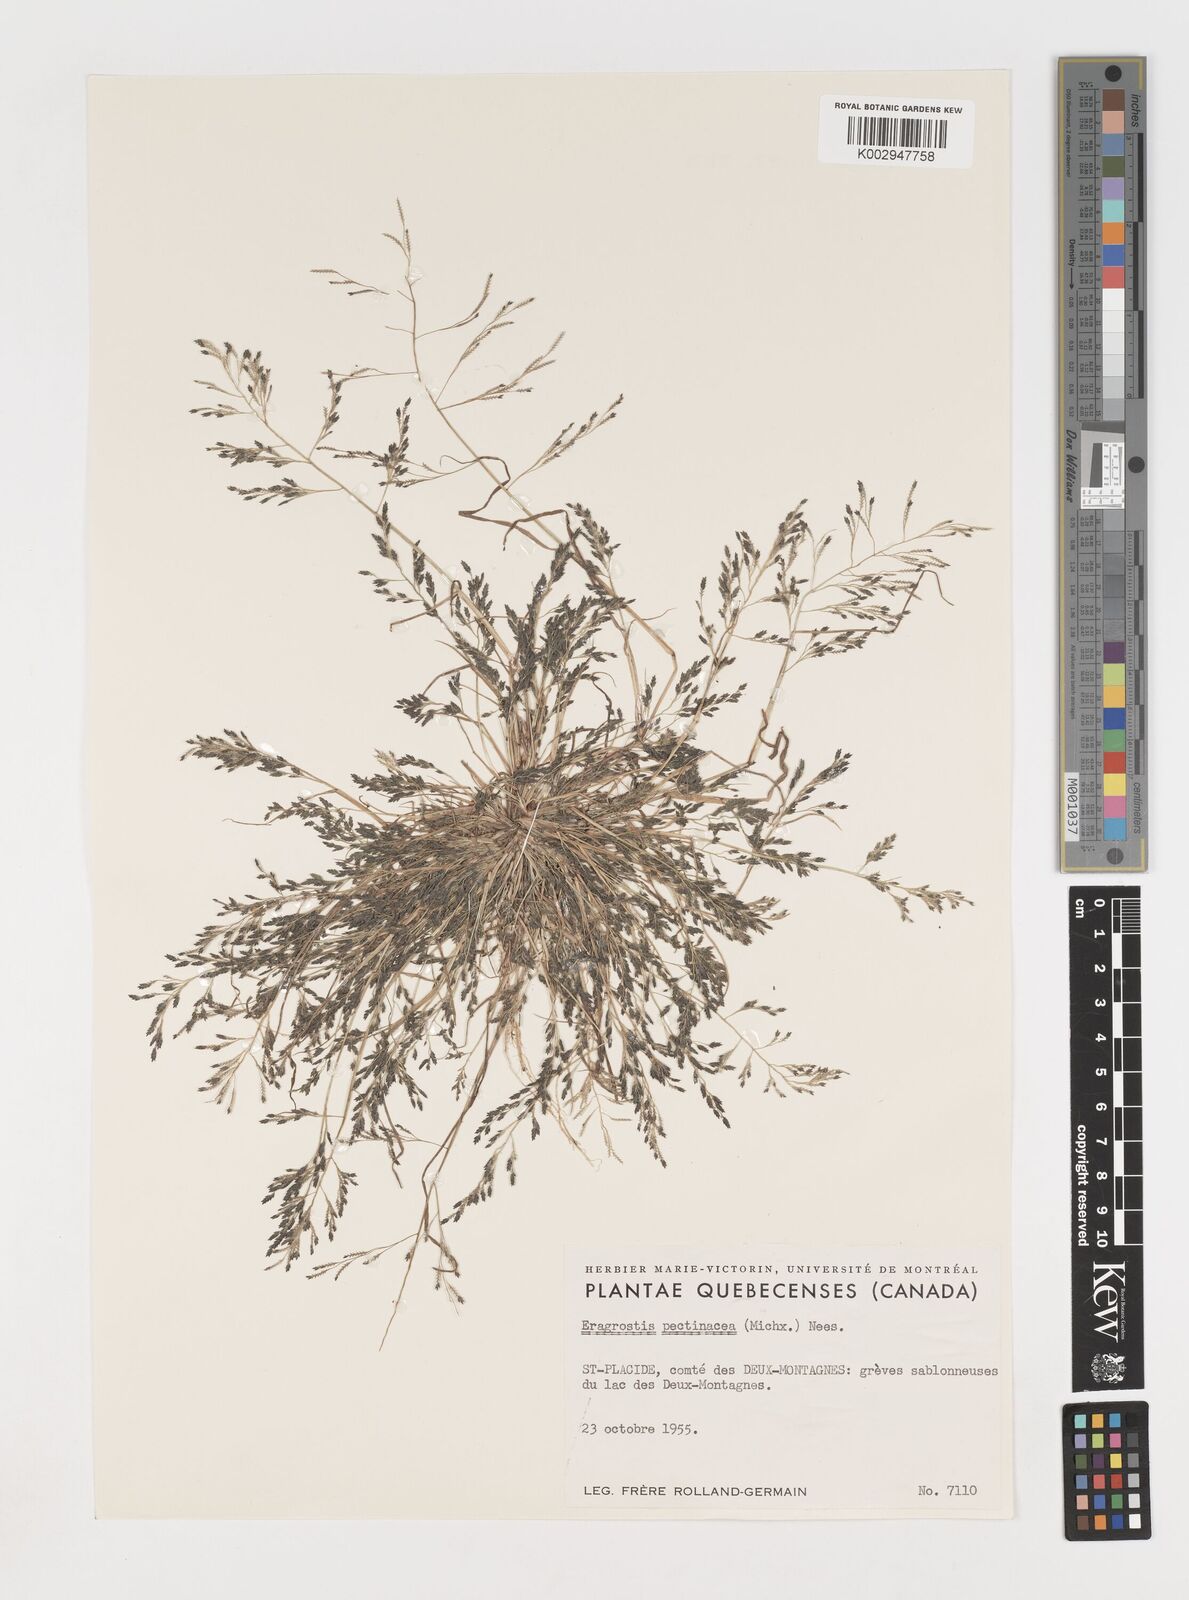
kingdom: Plantae
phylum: Tracheophyta
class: Liliopsida
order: Poales
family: Poaceae
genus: Eragrostis
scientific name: Eragrostis pectinacea
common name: Tufted lovegrass
